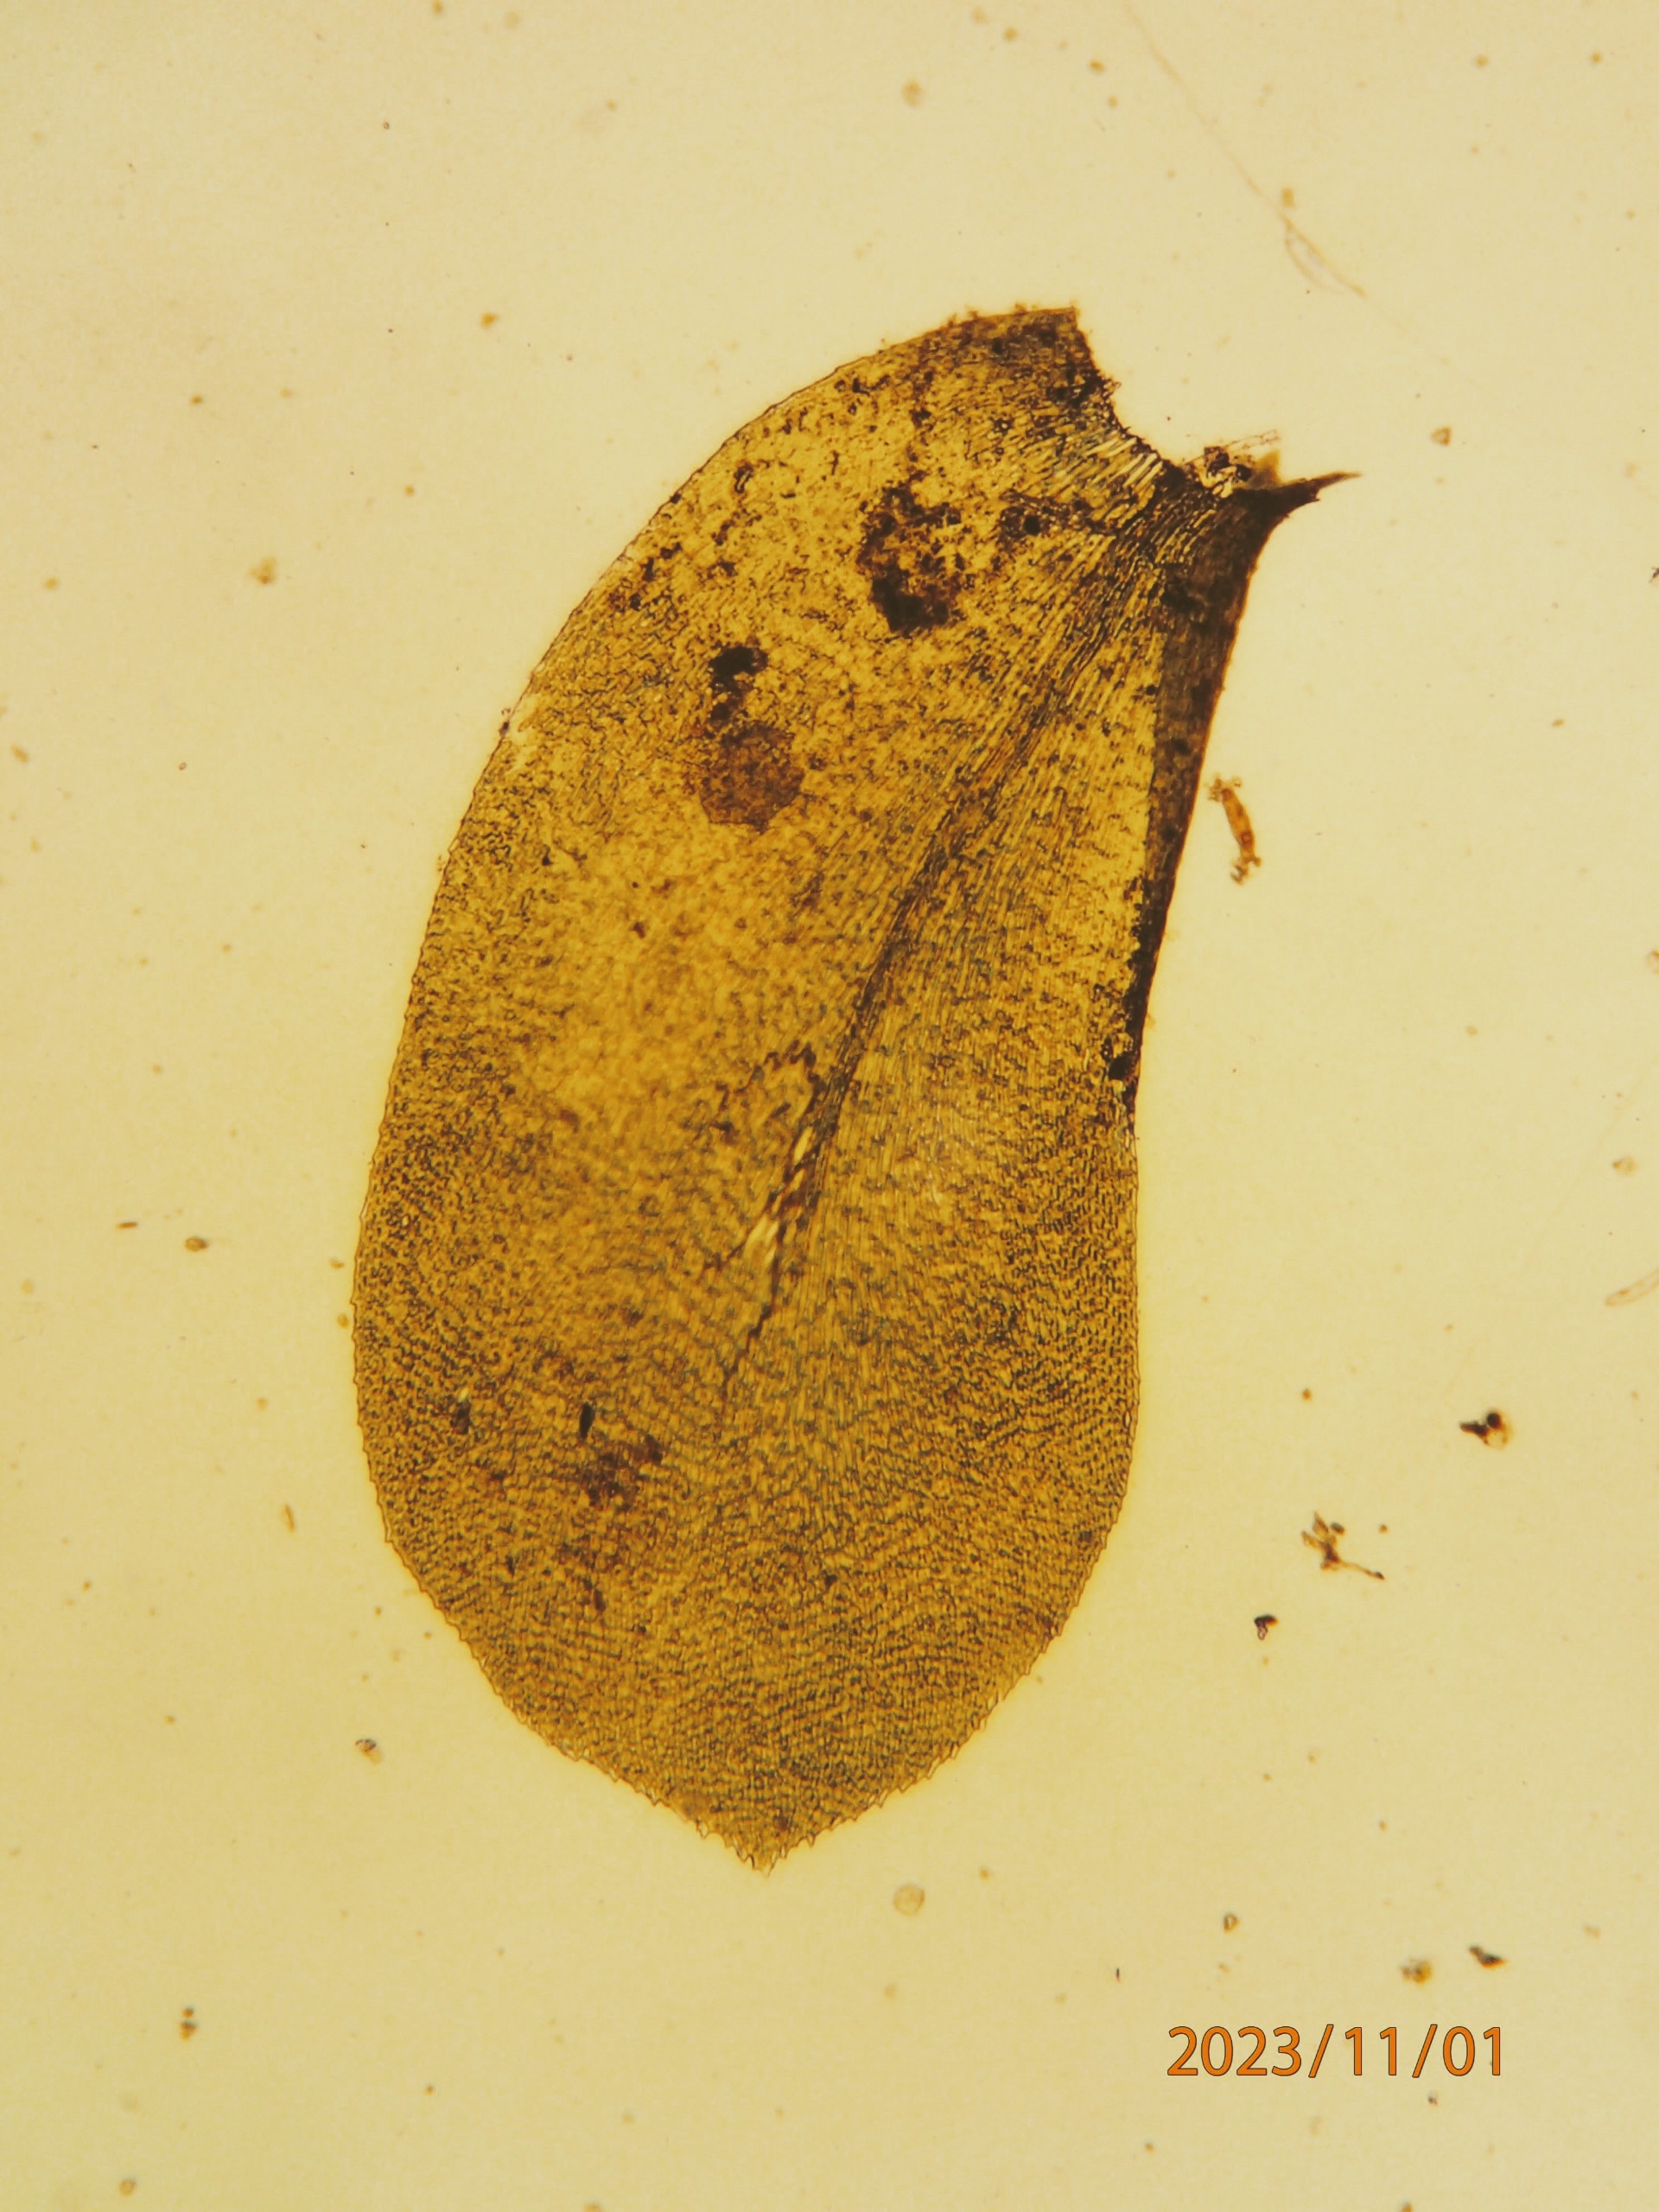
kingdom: Plantae
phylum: Bryophyta
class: Bryopsida
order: Hypnales
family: Neckeraceae
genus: Homalia
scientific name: Homalia trichomanoides
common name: Skov-tungemos
